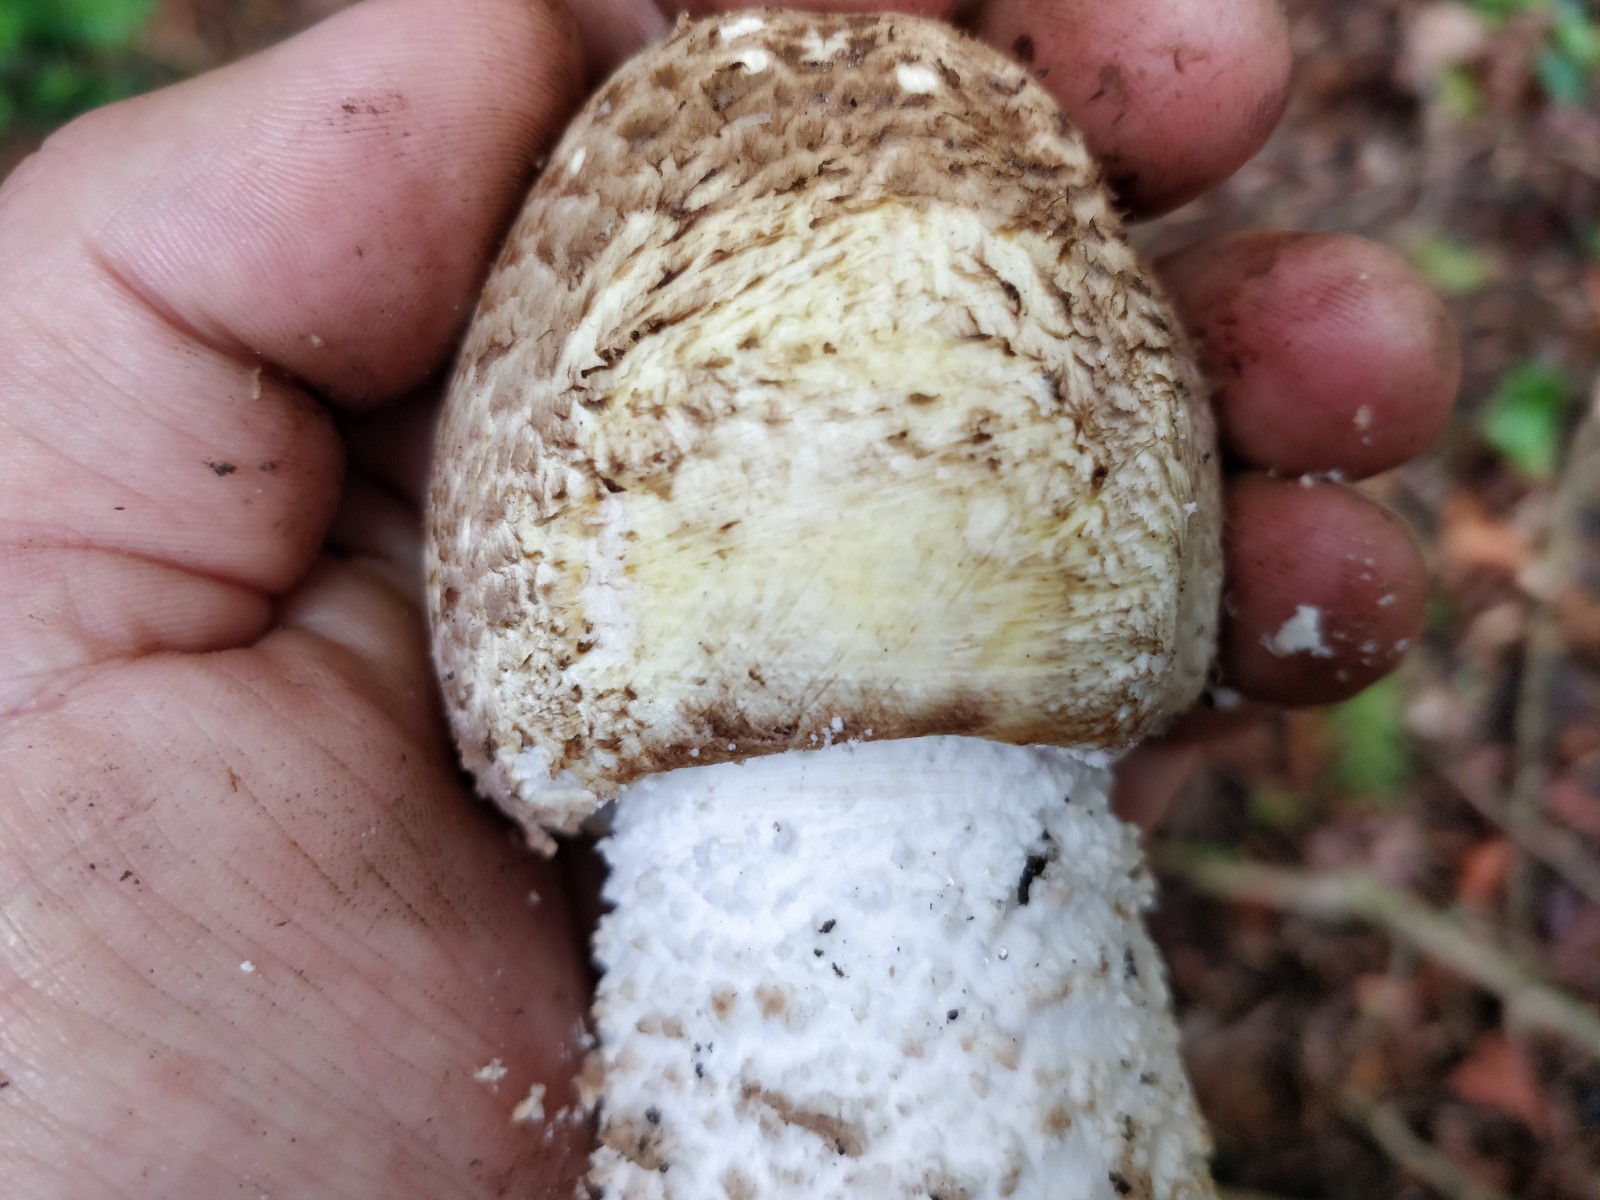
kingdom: Fungi
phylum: Basidiomycota
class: Agaricomycetes
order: Agaricales
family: Agaricaceae
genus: Agaricus
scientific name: Agaricus augustus
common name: prægtig champignon
